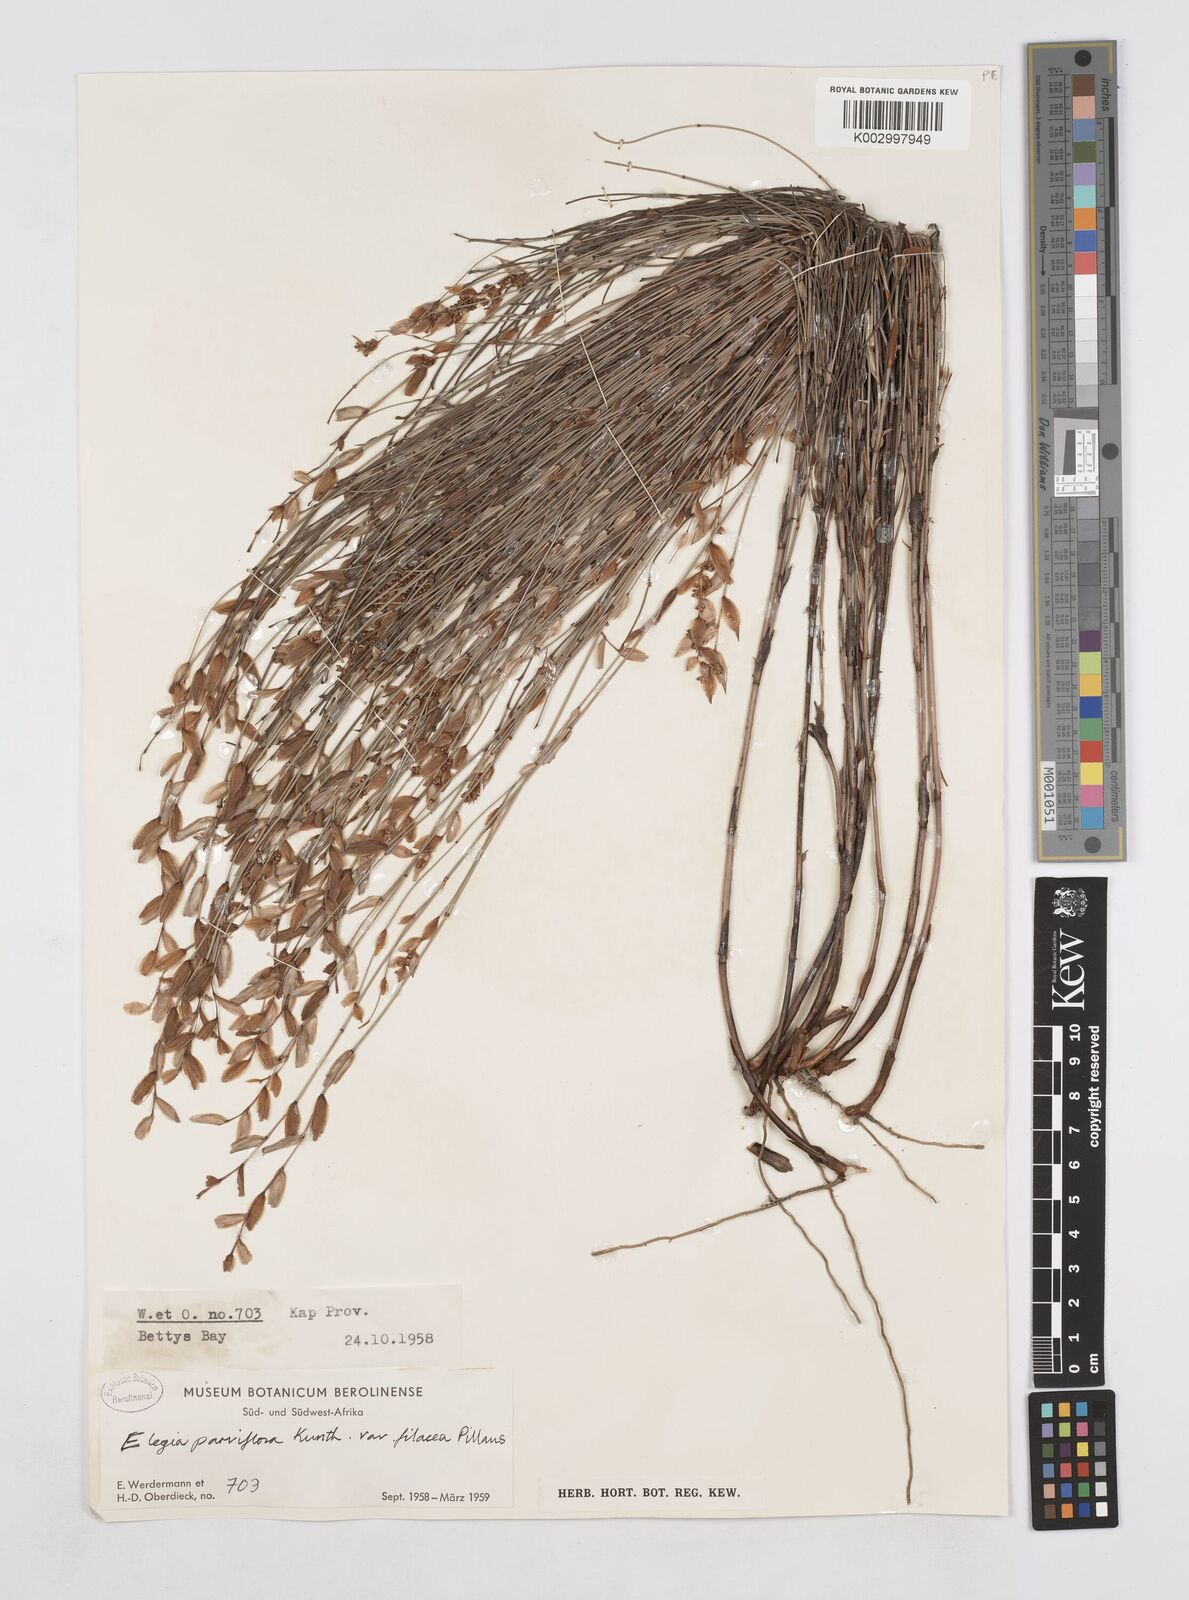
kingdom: Plantae
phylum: Tracheophyta
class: Liliopsida
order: Poales
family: Restionaceae
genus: Elegia
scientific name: Elegia stipularis
